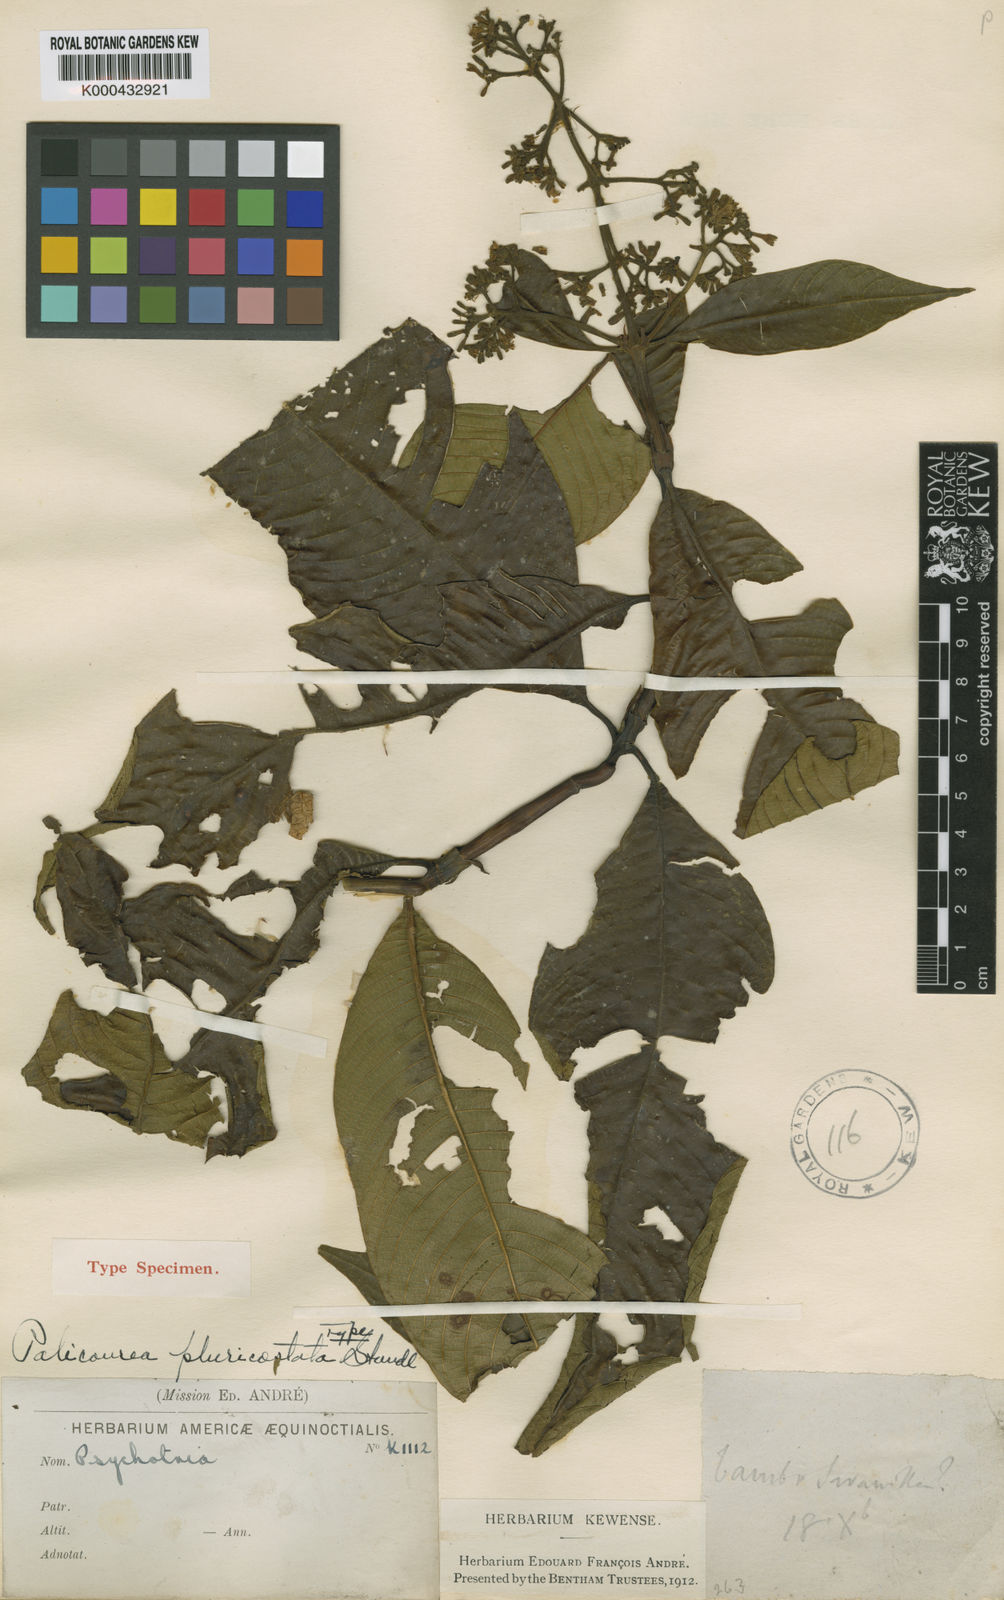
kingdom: Plantae
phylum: Tracheophyta
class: Magnoliopsida
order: Gentianales
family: Rubiaceae
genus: Palicourea
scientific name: Palicourea reticulata
